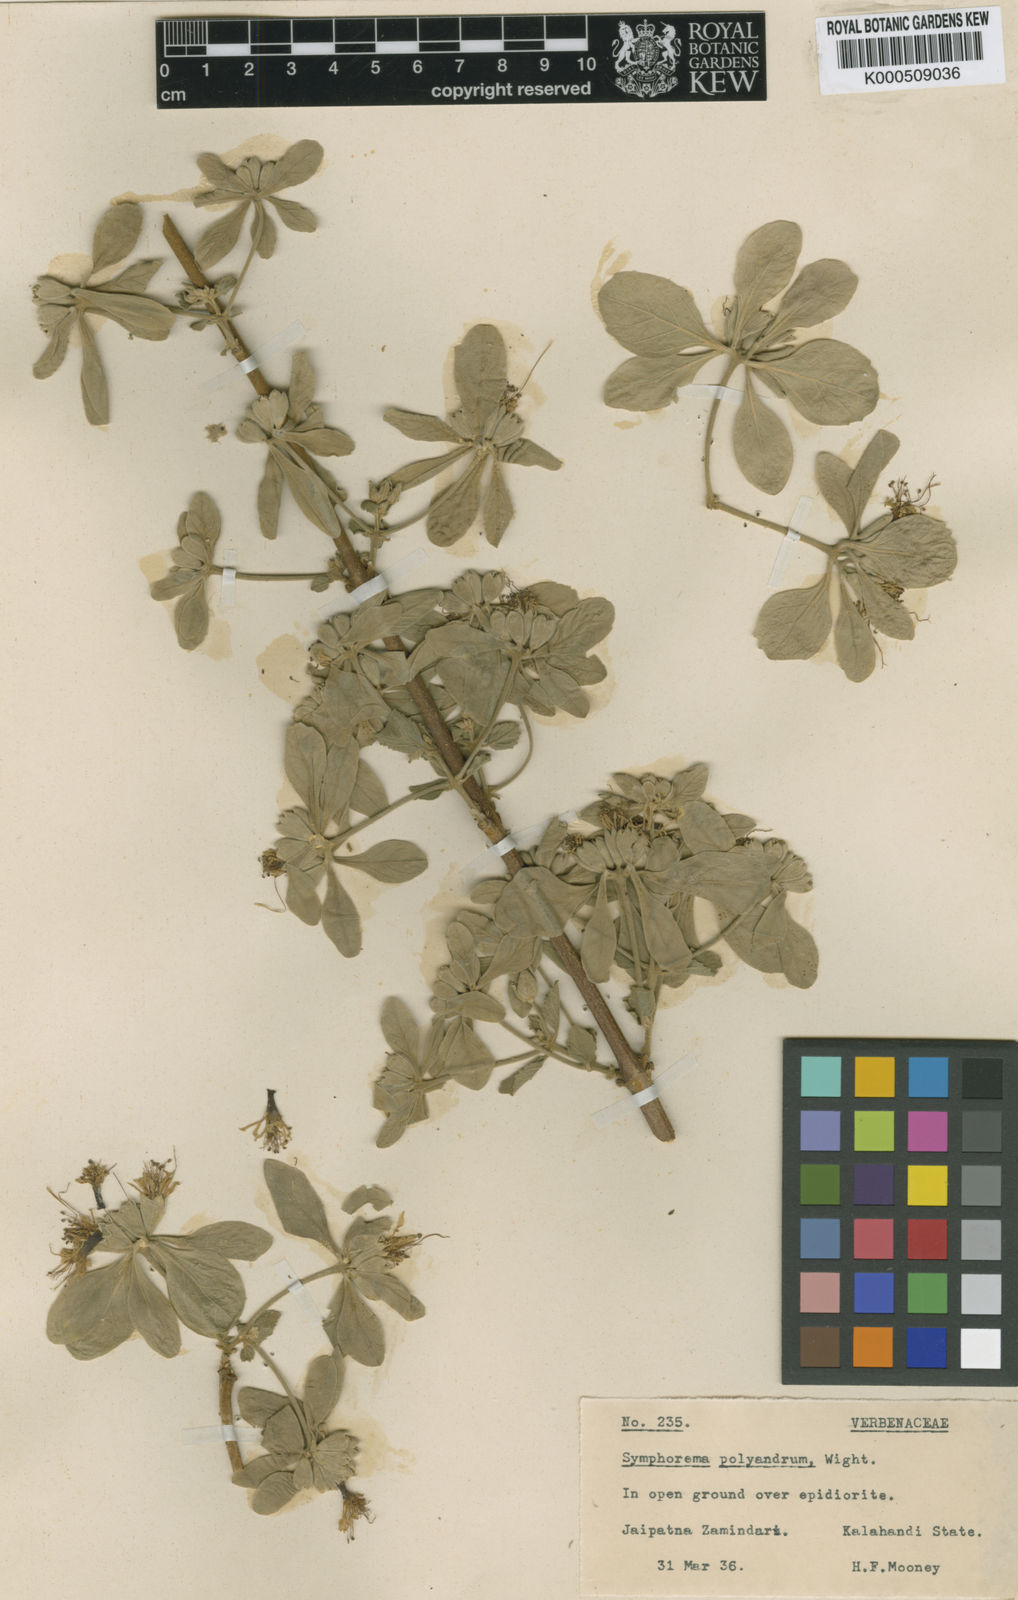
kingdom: Plantae
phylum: Tracheophyta
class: Magnoliopsida
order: Lamiales
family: Lamiaceae
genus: Symphorema
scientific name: Symphorema polyandrum
